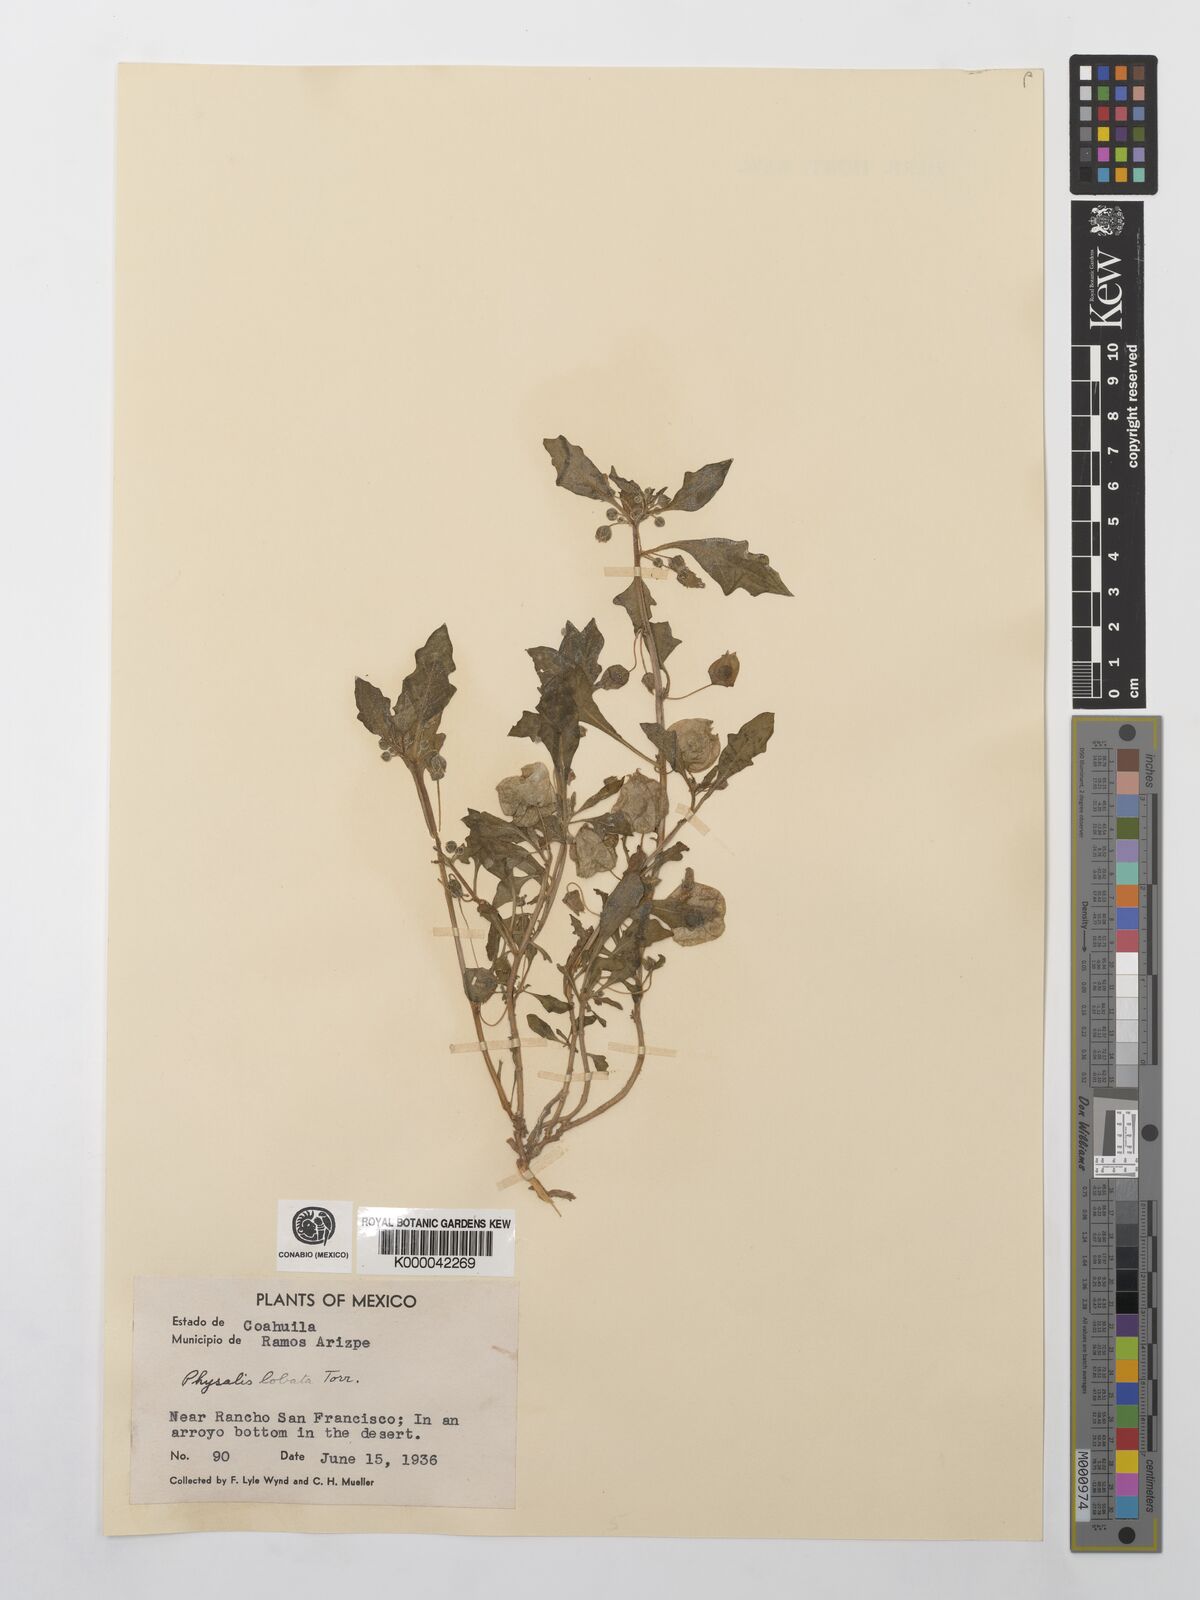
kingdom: Plantae
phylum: Tracheophyta
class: Magnoliopsida
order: Solanales
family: Solanaceae
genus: Quincula
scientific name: Quincula lobata
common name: Purple-ground-cherry
